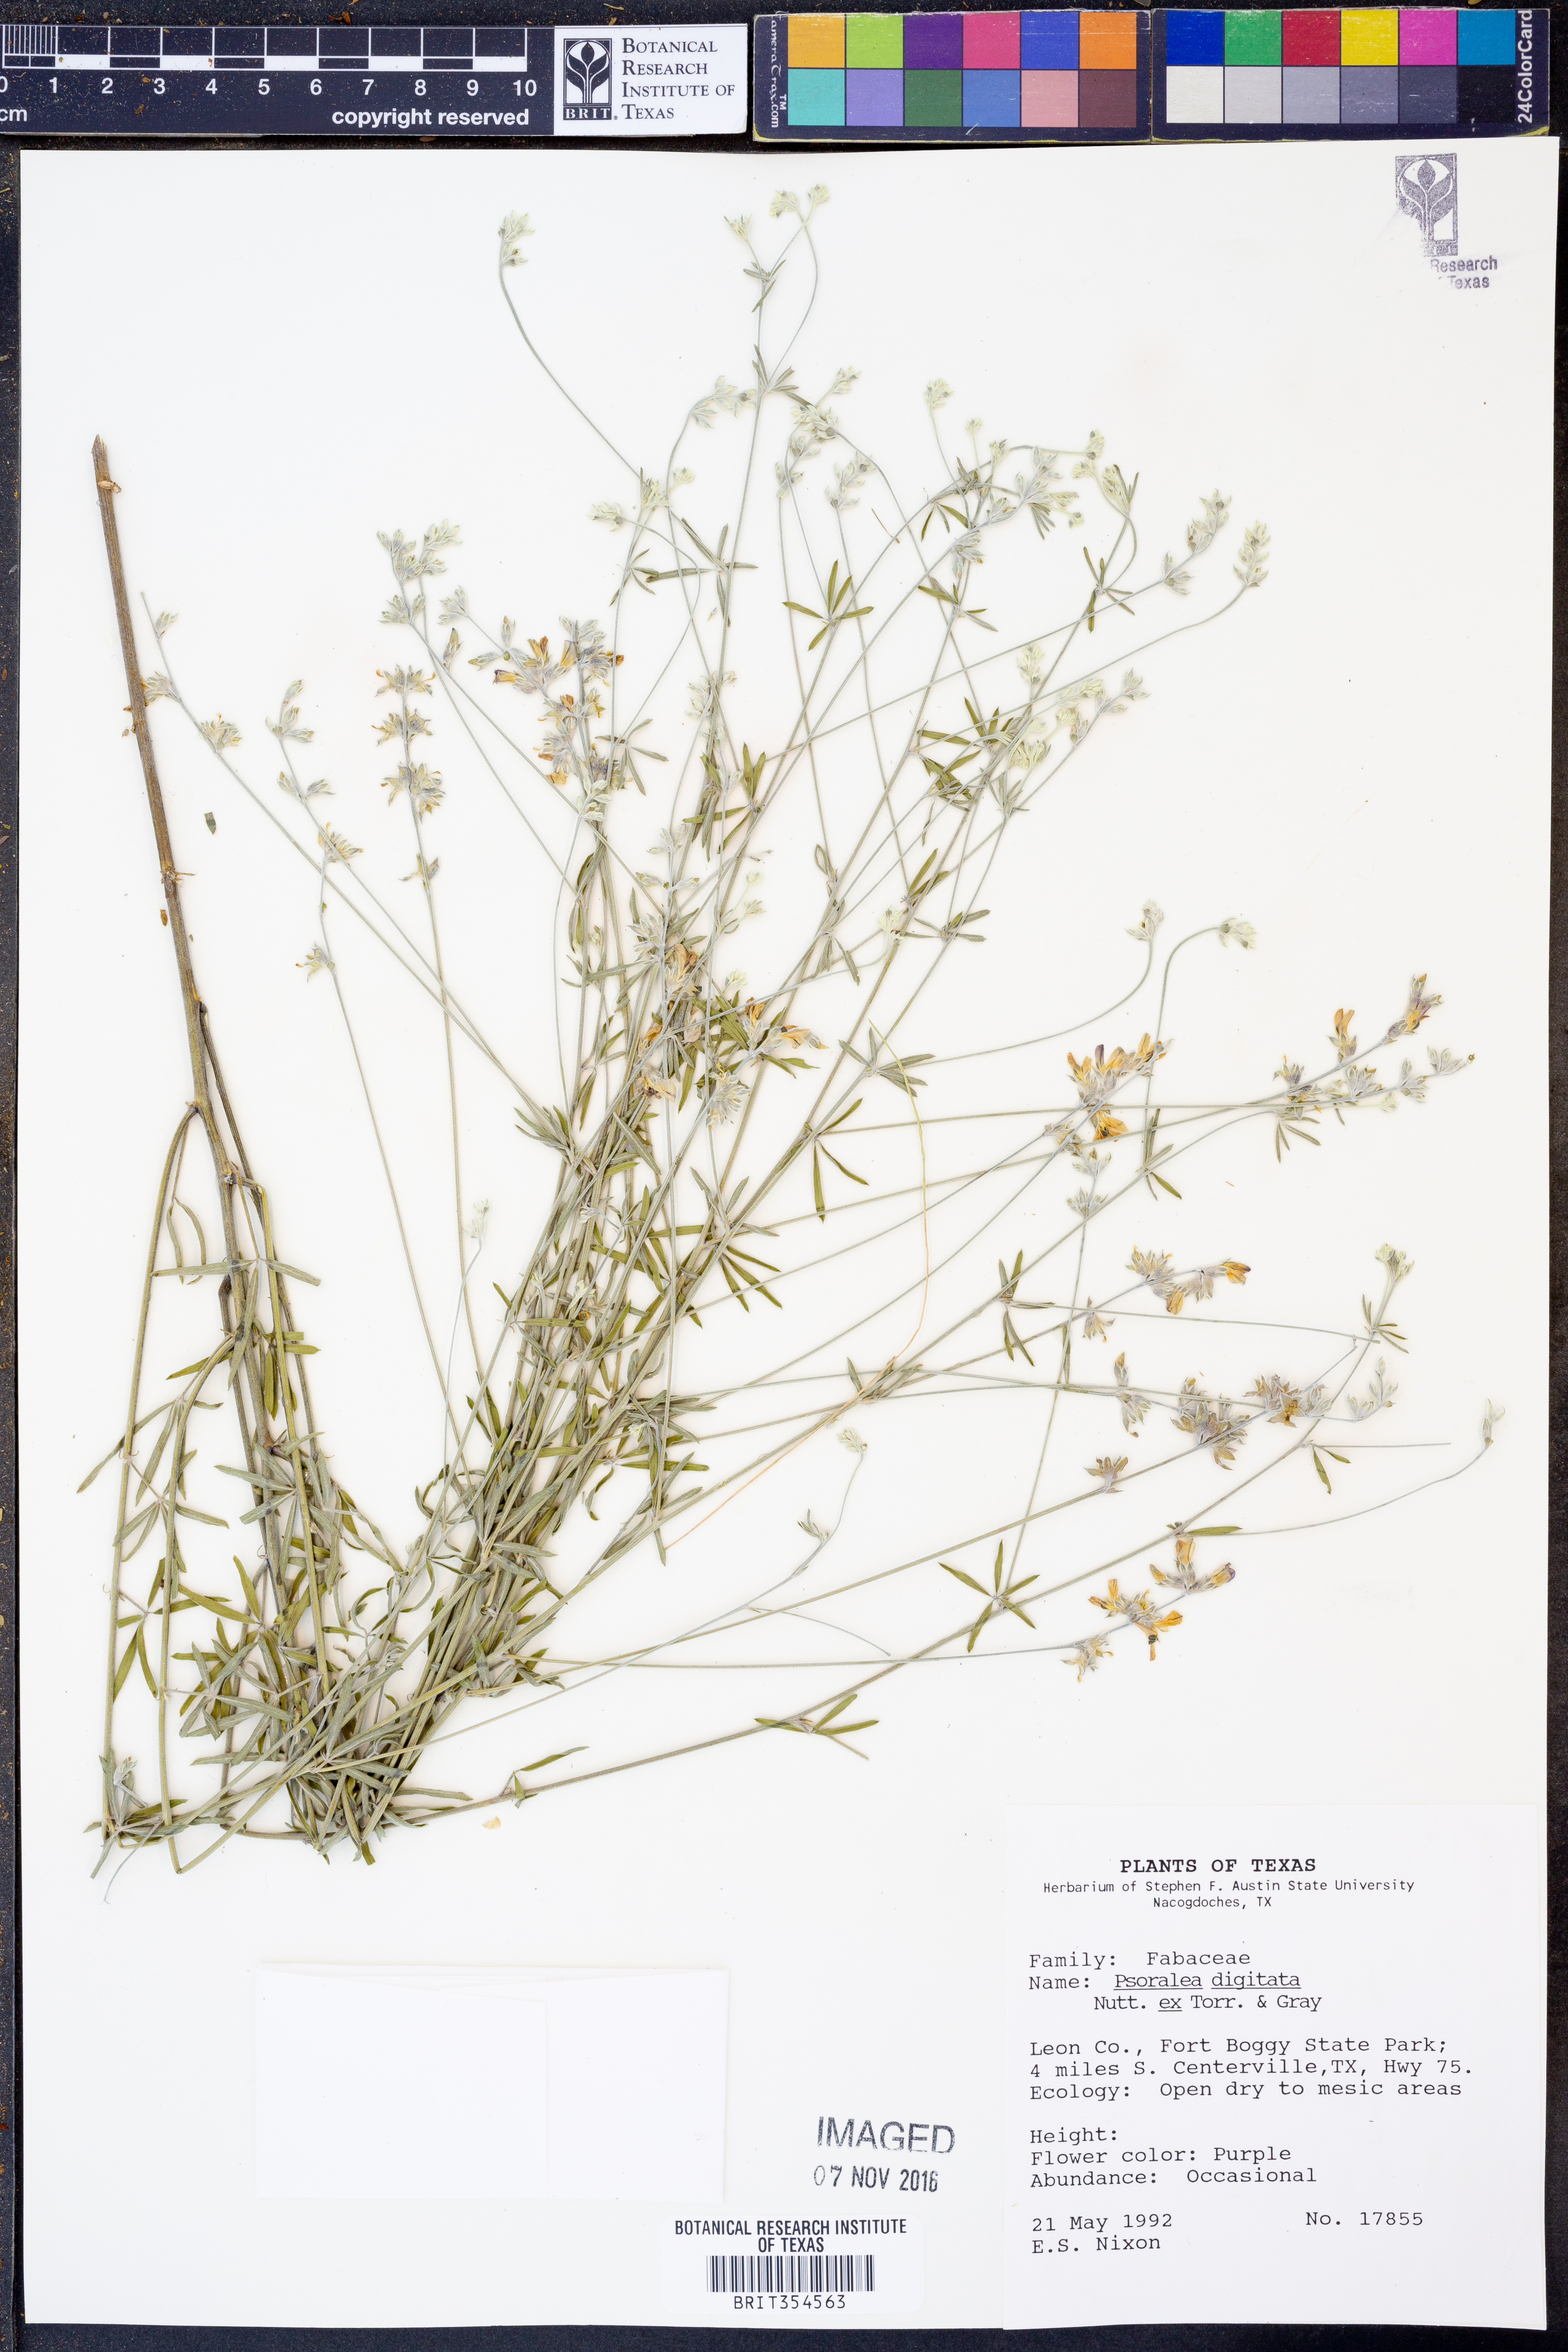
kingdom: Plantae
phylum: Tracheophyta
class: Magnoliopsida
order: Fabales
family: Fabaceae
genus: Pediomelum
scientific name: Pediomelum digitatum
